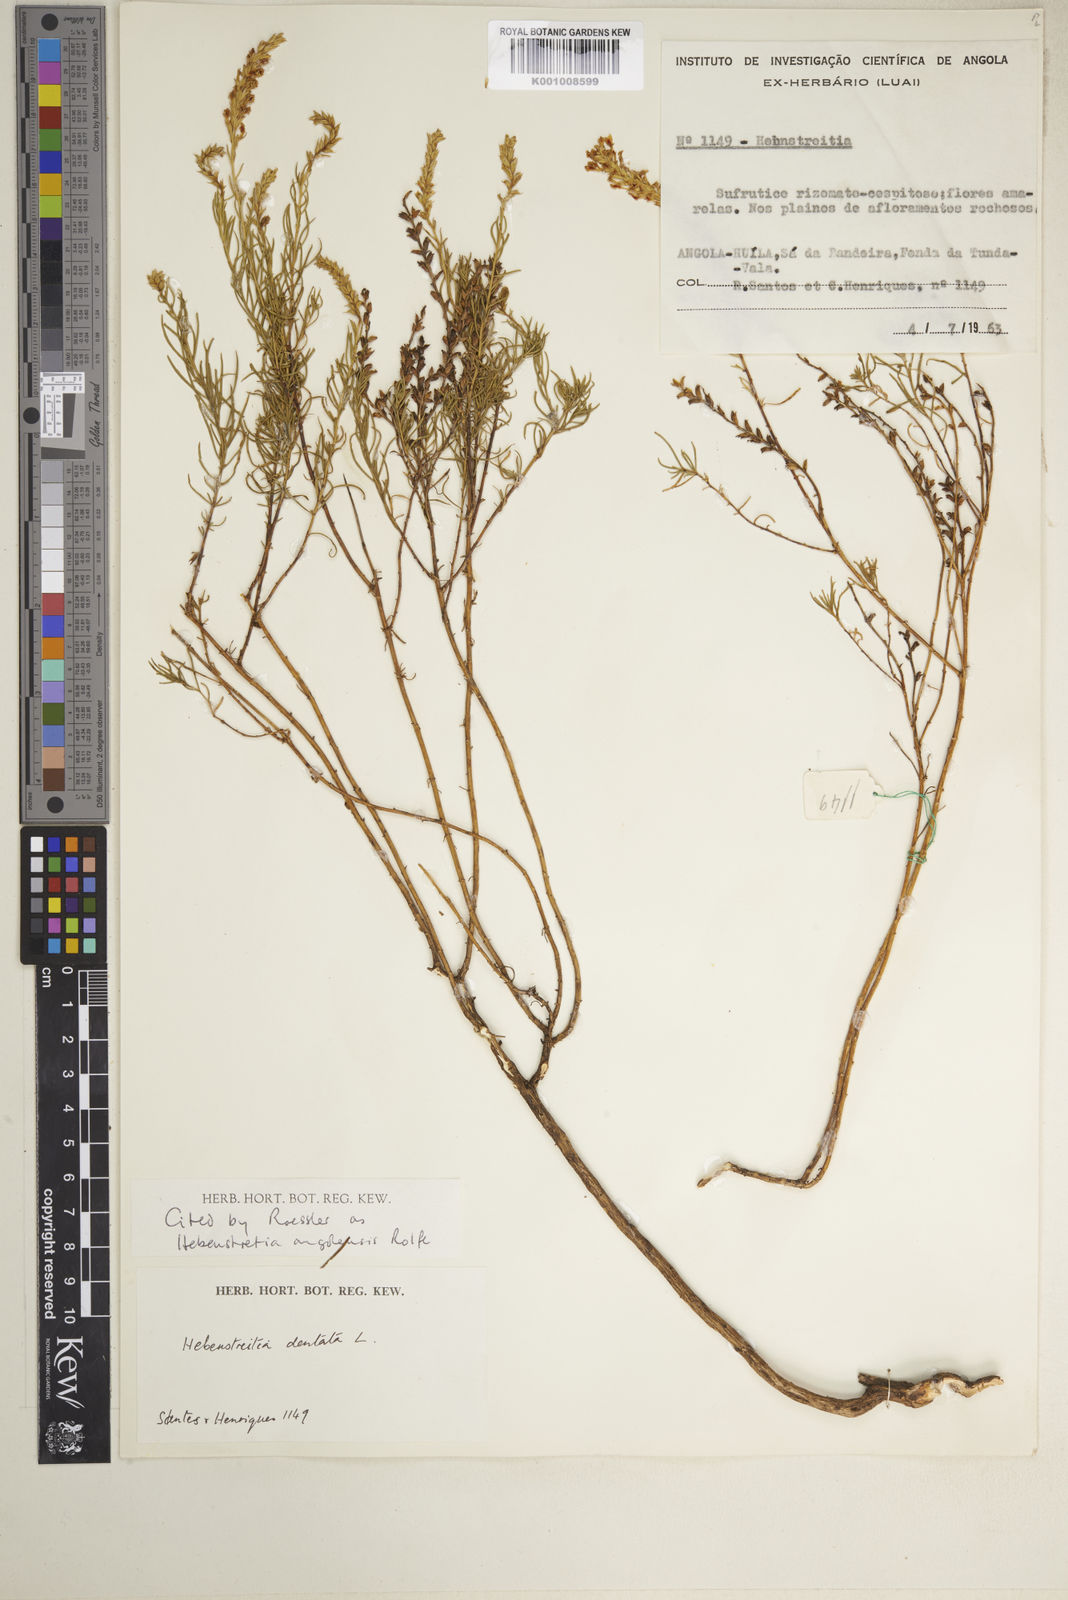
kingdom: Plantae
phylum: Tracheophyta
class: Magnoliopsida
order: Lamiales
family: Scrophulariaceae
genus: Hebenstretia
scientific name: Hebenstretia angolensis
